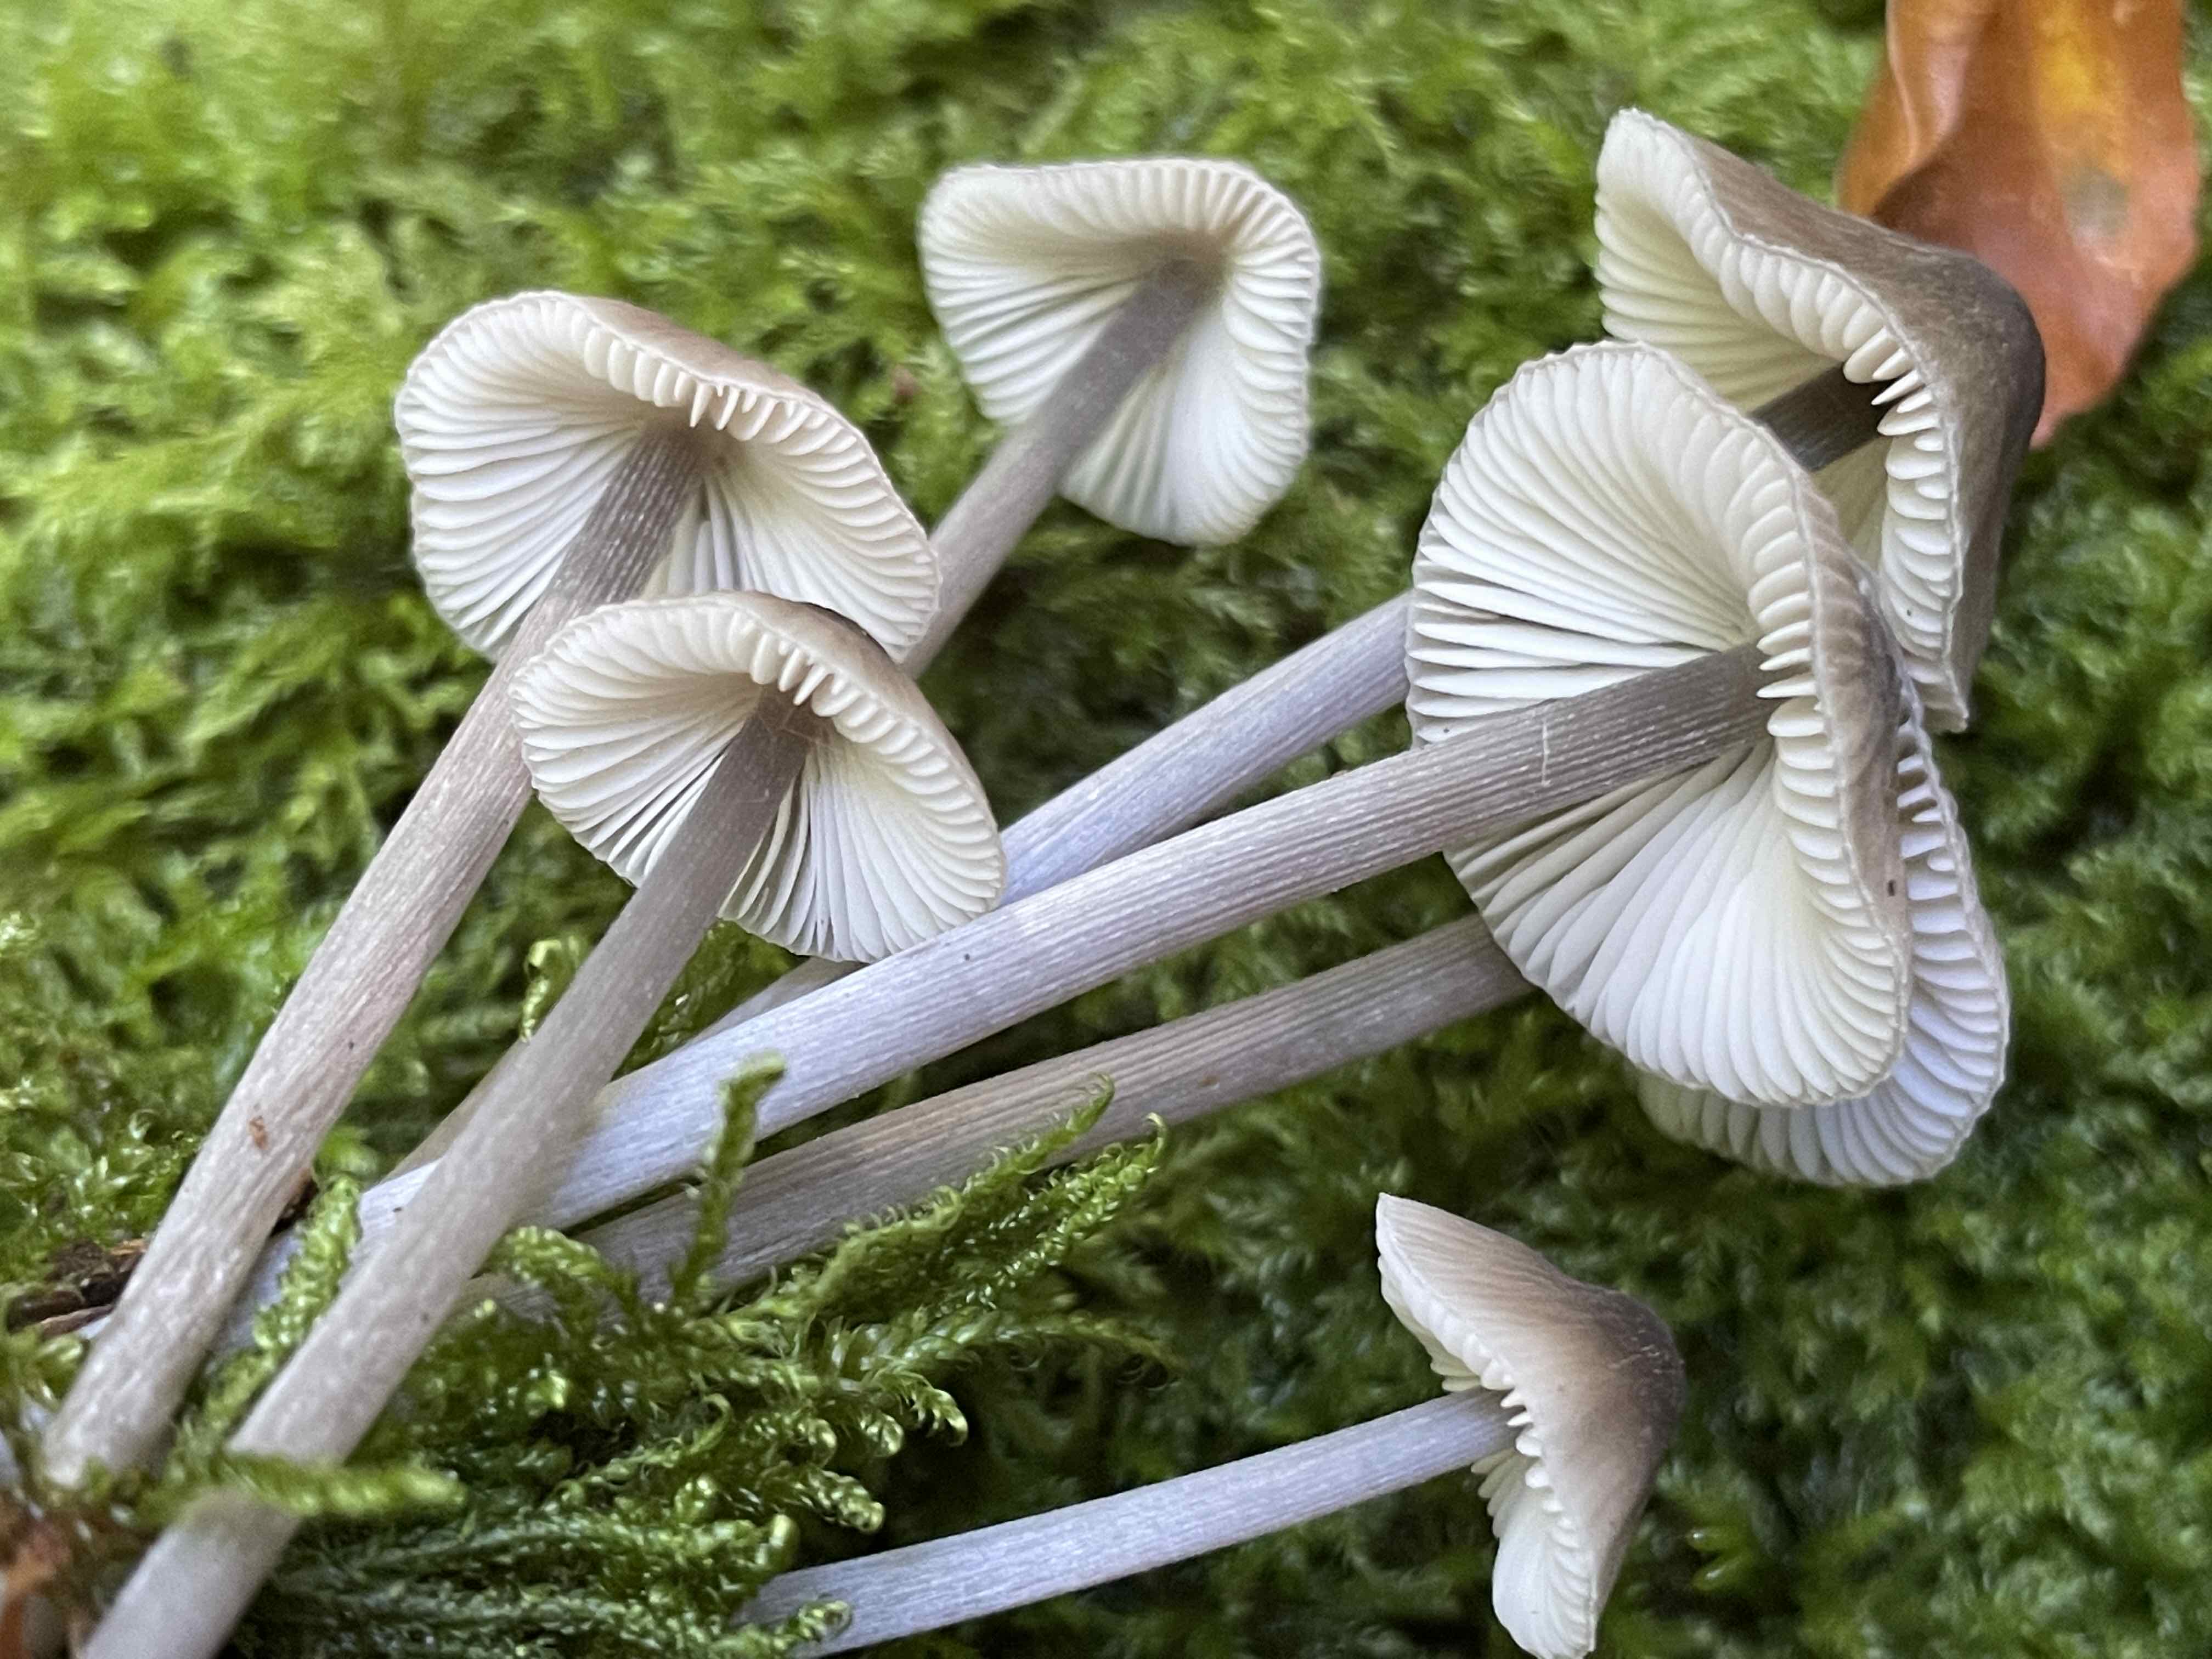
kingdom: Fungi
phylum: Basidiomycota
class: Agaricomycetes
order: Agaricales
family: Mycenaceae
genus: Mycena
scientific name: Mycena polygramma
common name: mangestribet huesvamp
